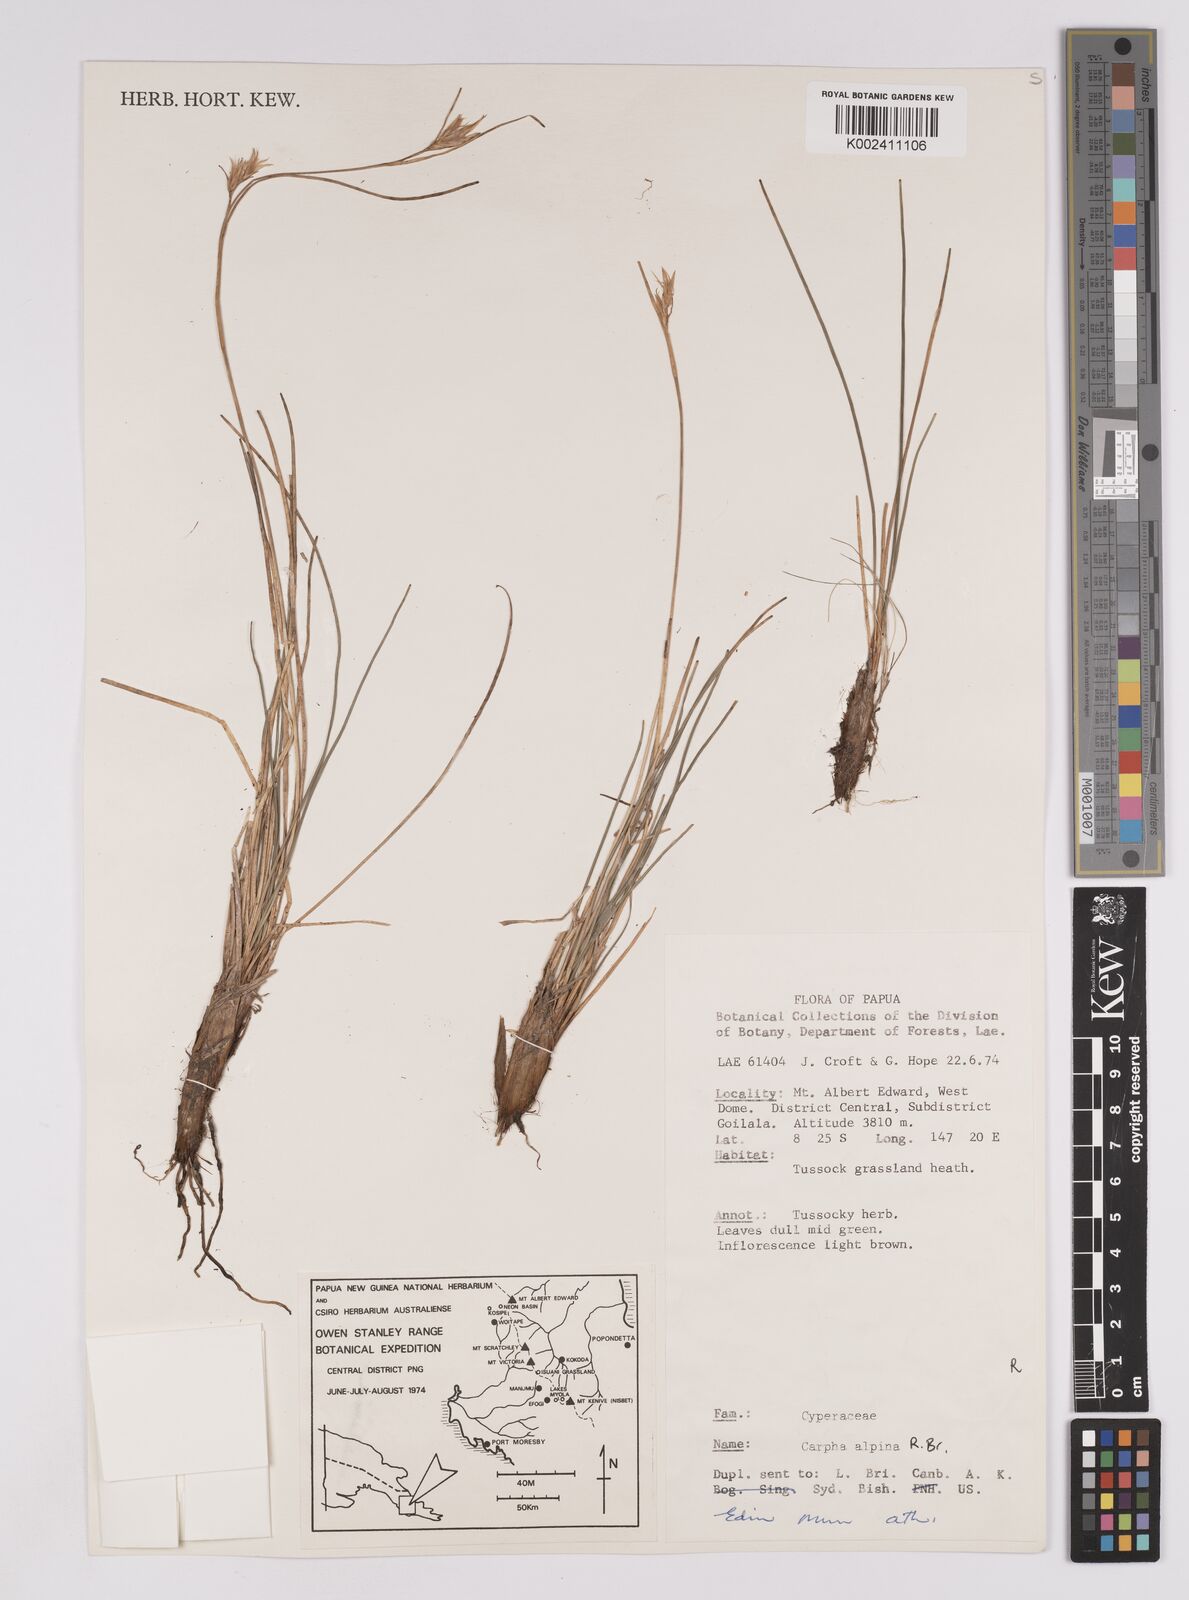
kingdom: Plantae
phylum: Tracheophyta
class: Liliopsida
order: Poales
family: Cyperaceae
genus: Carpha
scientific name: Carpha alpina
